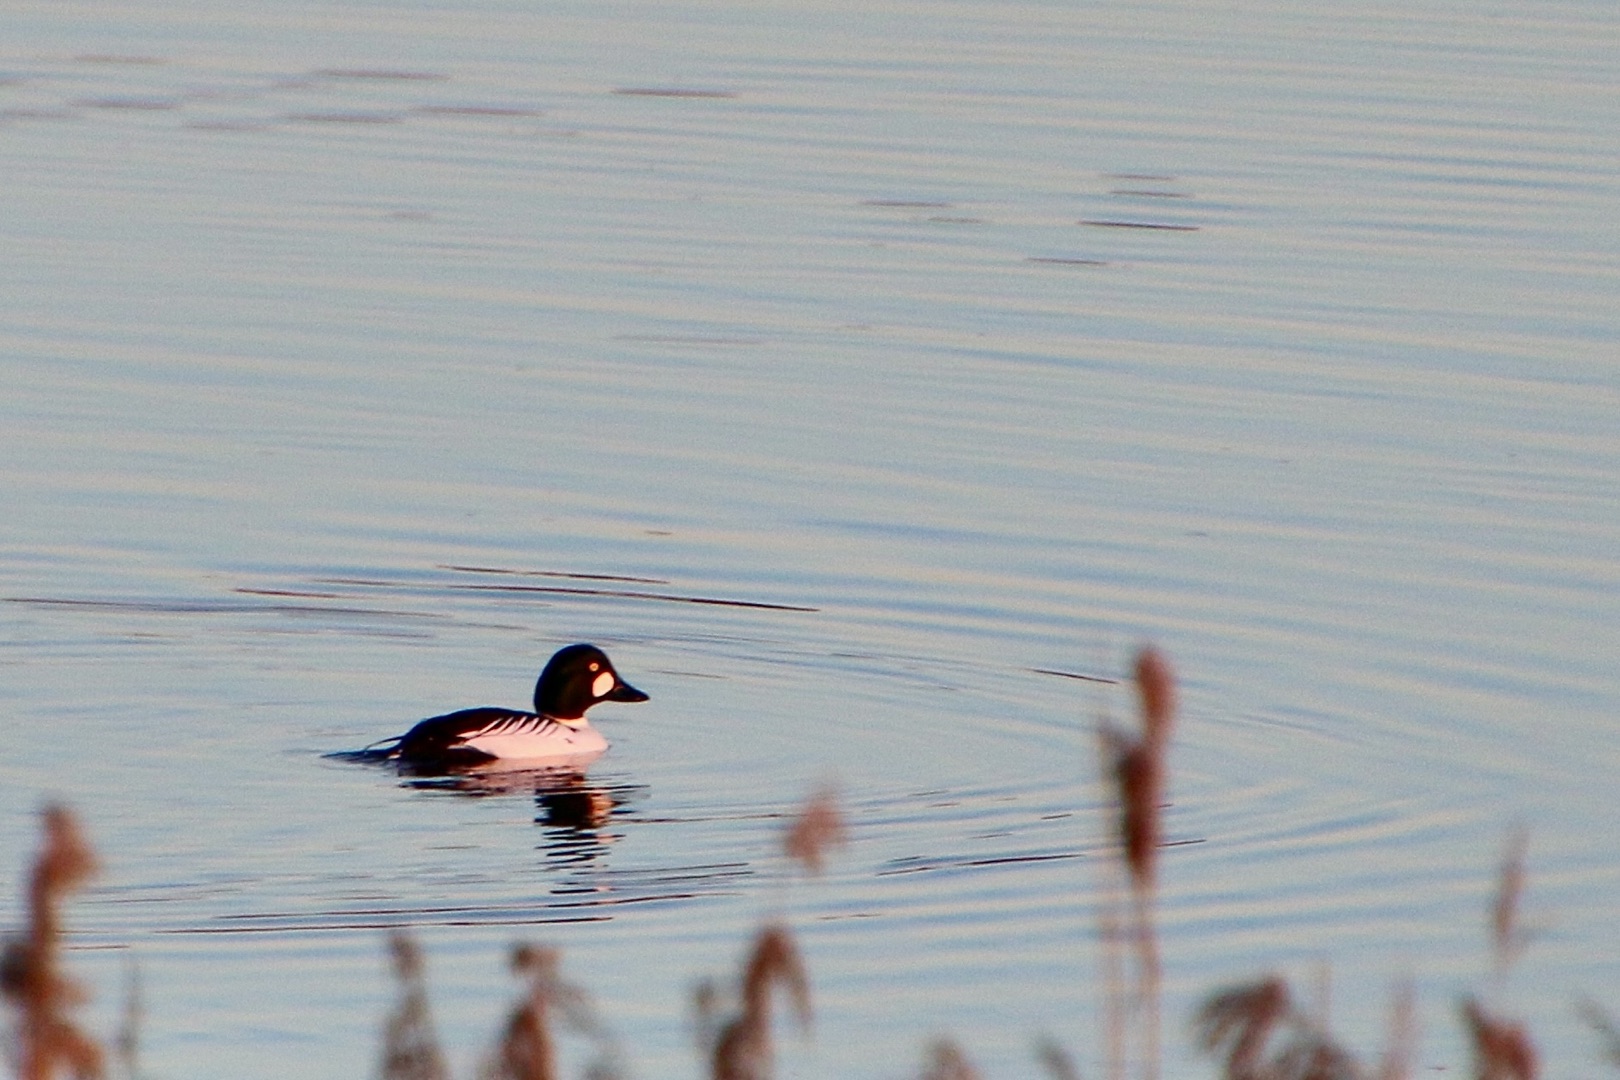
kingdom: Animalia
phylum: Chordata
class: Aves
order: Anseriformes
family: Anatidae
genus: Bucephala
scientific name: Bucephala clangula
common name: Hvinand
